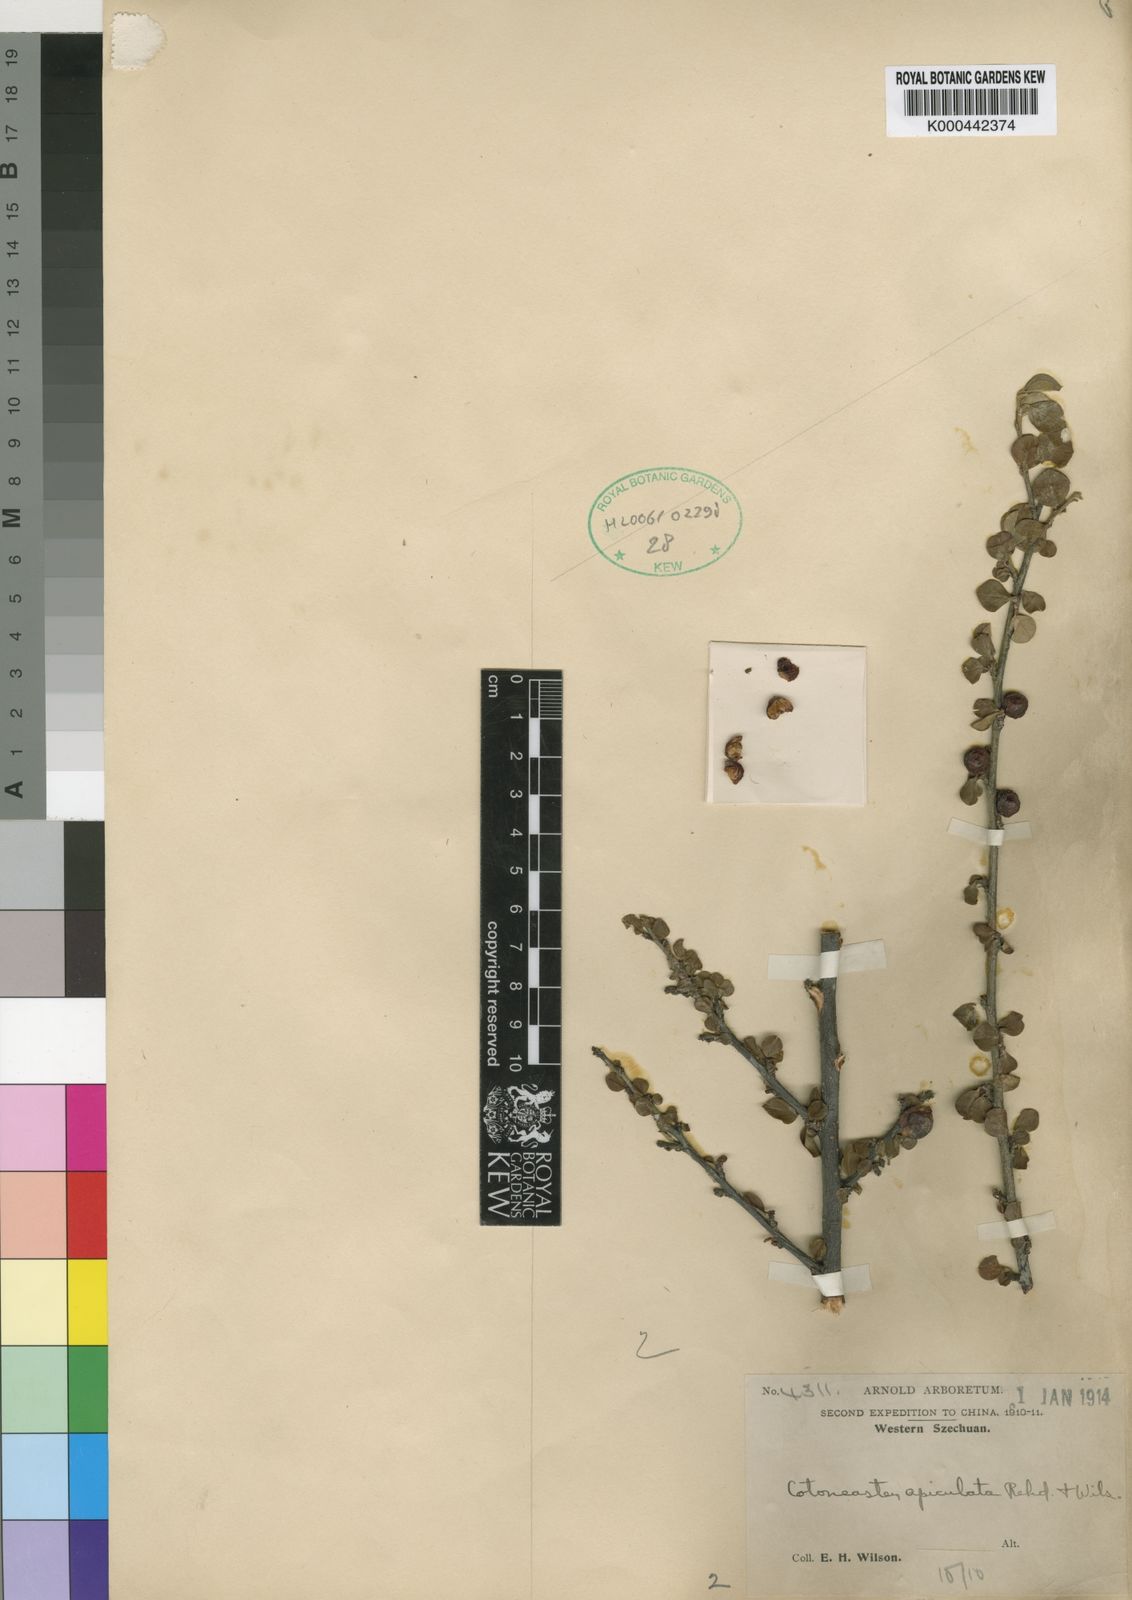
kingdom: Plantae
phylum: Tracheophyta
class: Magnoliopsida
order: Rosales
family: Rosaceae
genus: Cotoneaster
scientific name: Cotoneaster apiculatus
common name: Cranberry cotoneaster
